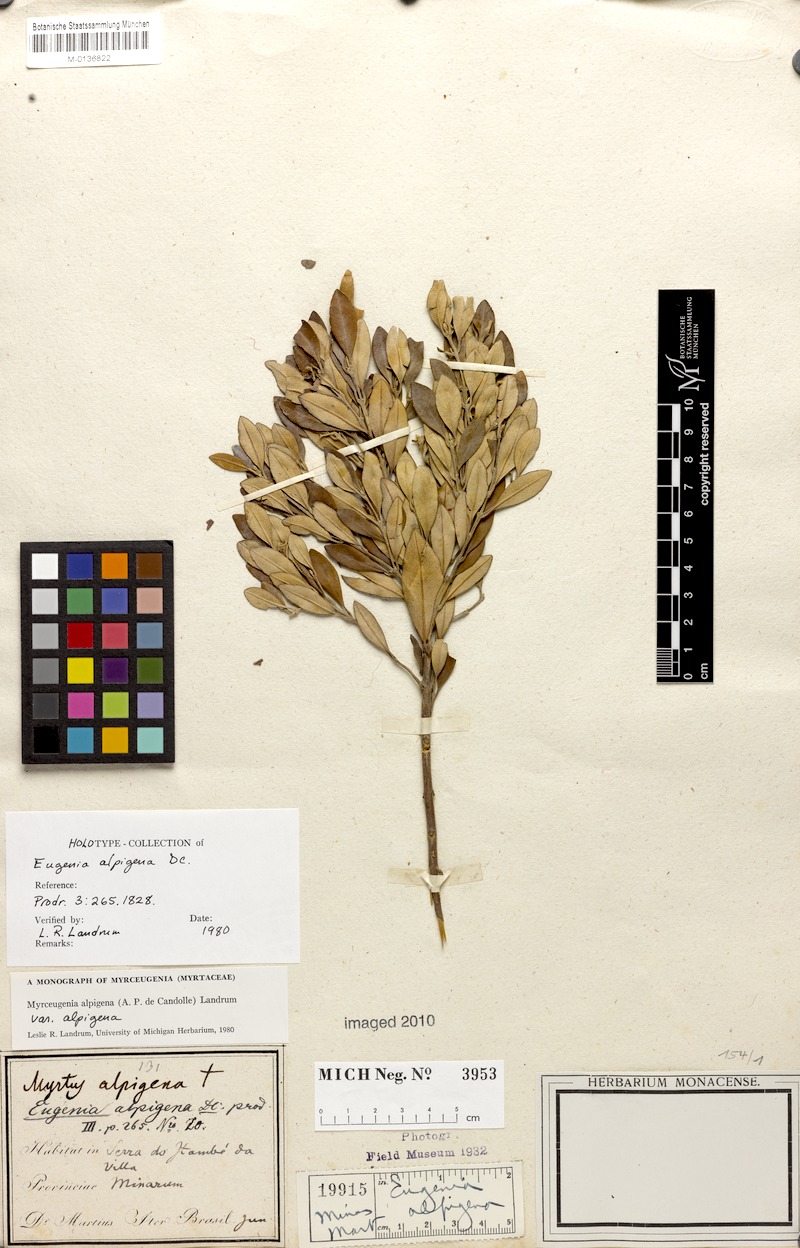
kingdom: Plantae
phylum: Tracheophyta
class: Magnoliopsida
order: Myrtales
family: Myrtaceae
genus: Myrceugenia
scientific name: Myrceugenia alpigena
